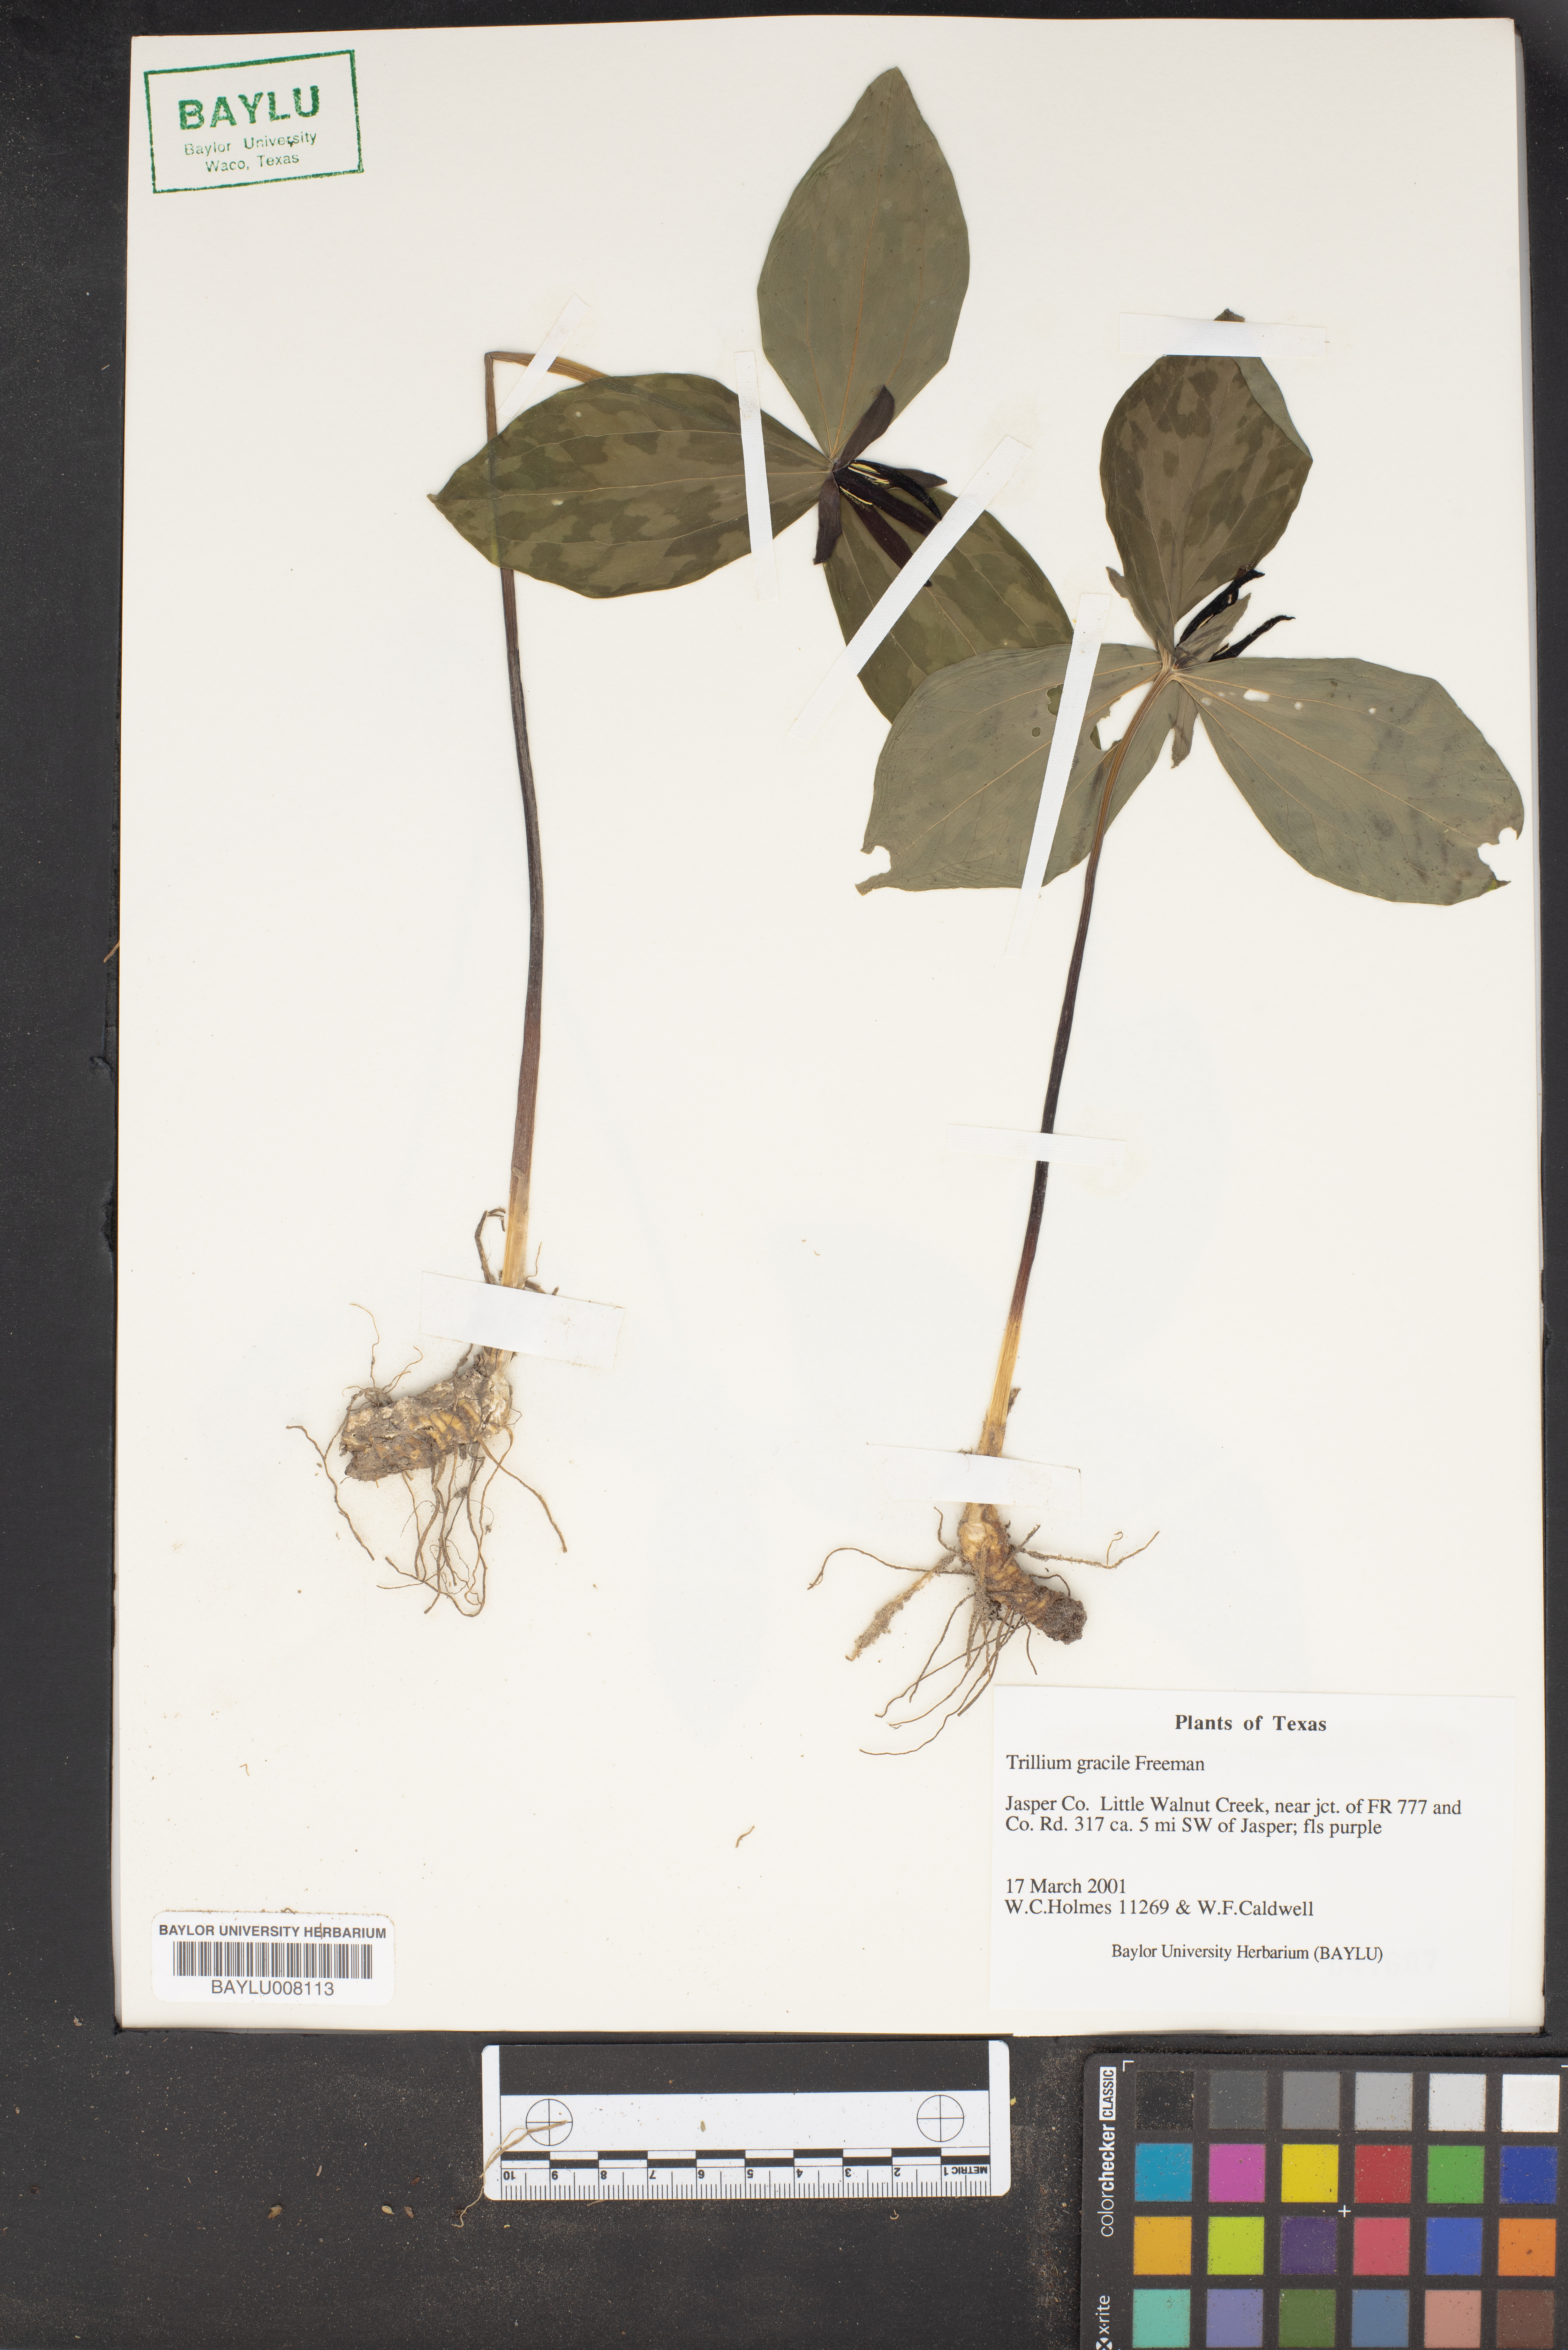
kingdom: Plantae
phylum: Tracheophyta
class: Liliopsida
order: Liliales
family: Melanthiaceae
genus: Trillium
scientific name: Trillium gracile
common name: Graceful trillium
